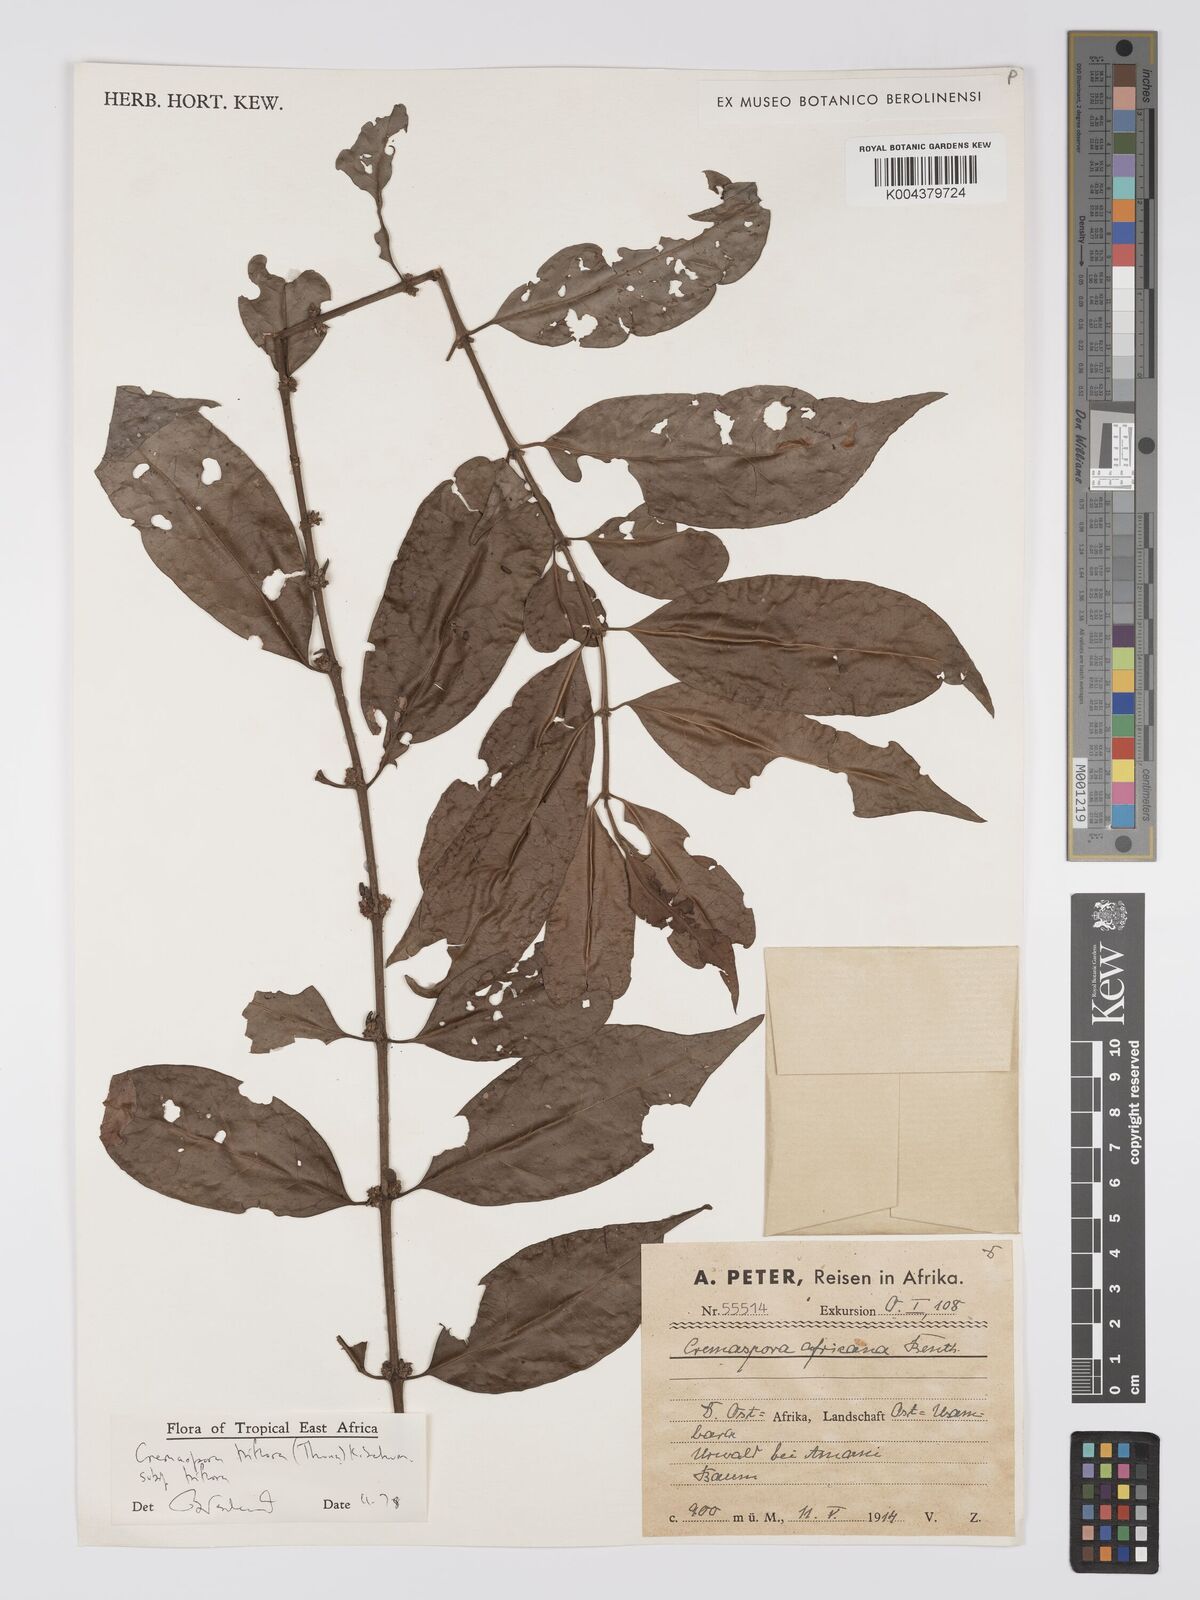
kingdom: Plantae
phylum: Tracheophyta
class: Magnoliopsida
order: Gentianales
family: Rubiaceae
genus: Cremaspora
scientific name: Cremaspora triflora
